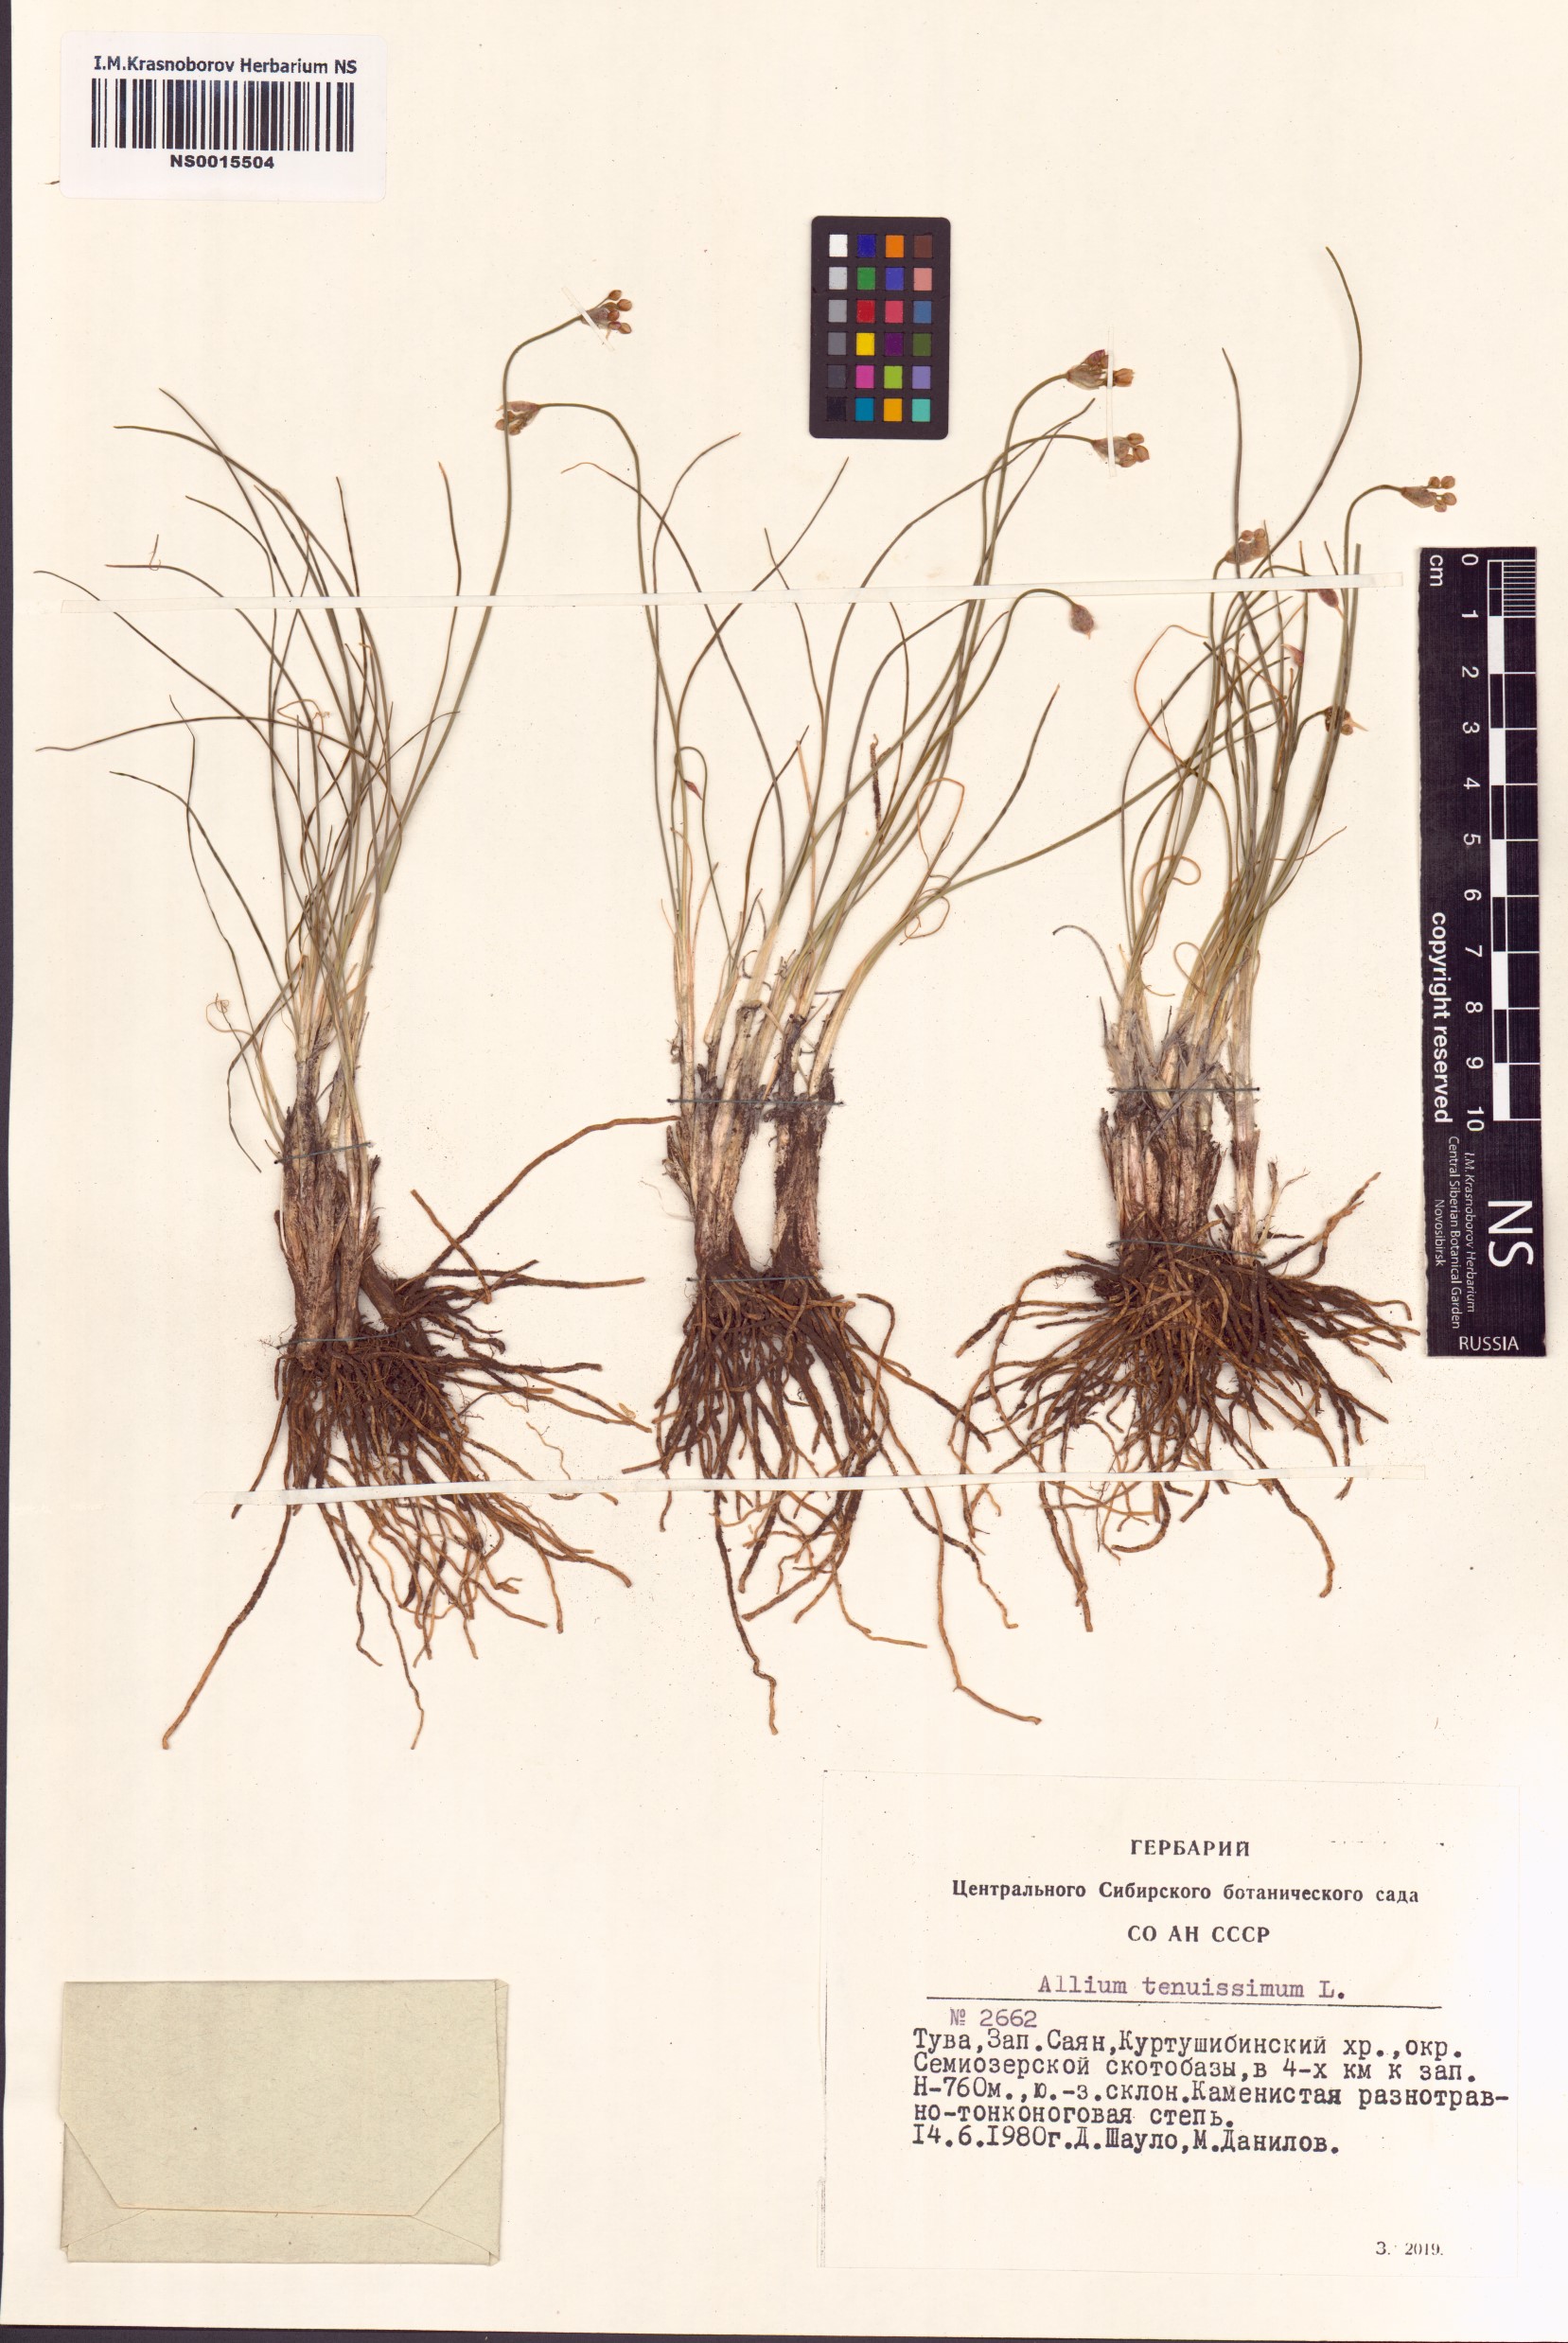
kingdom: Plantae
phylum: Tracheophyta
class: Liliopsida
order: Asparagales
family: Amaryllidaceae
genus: Allium
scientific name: Allium tenuissimum
